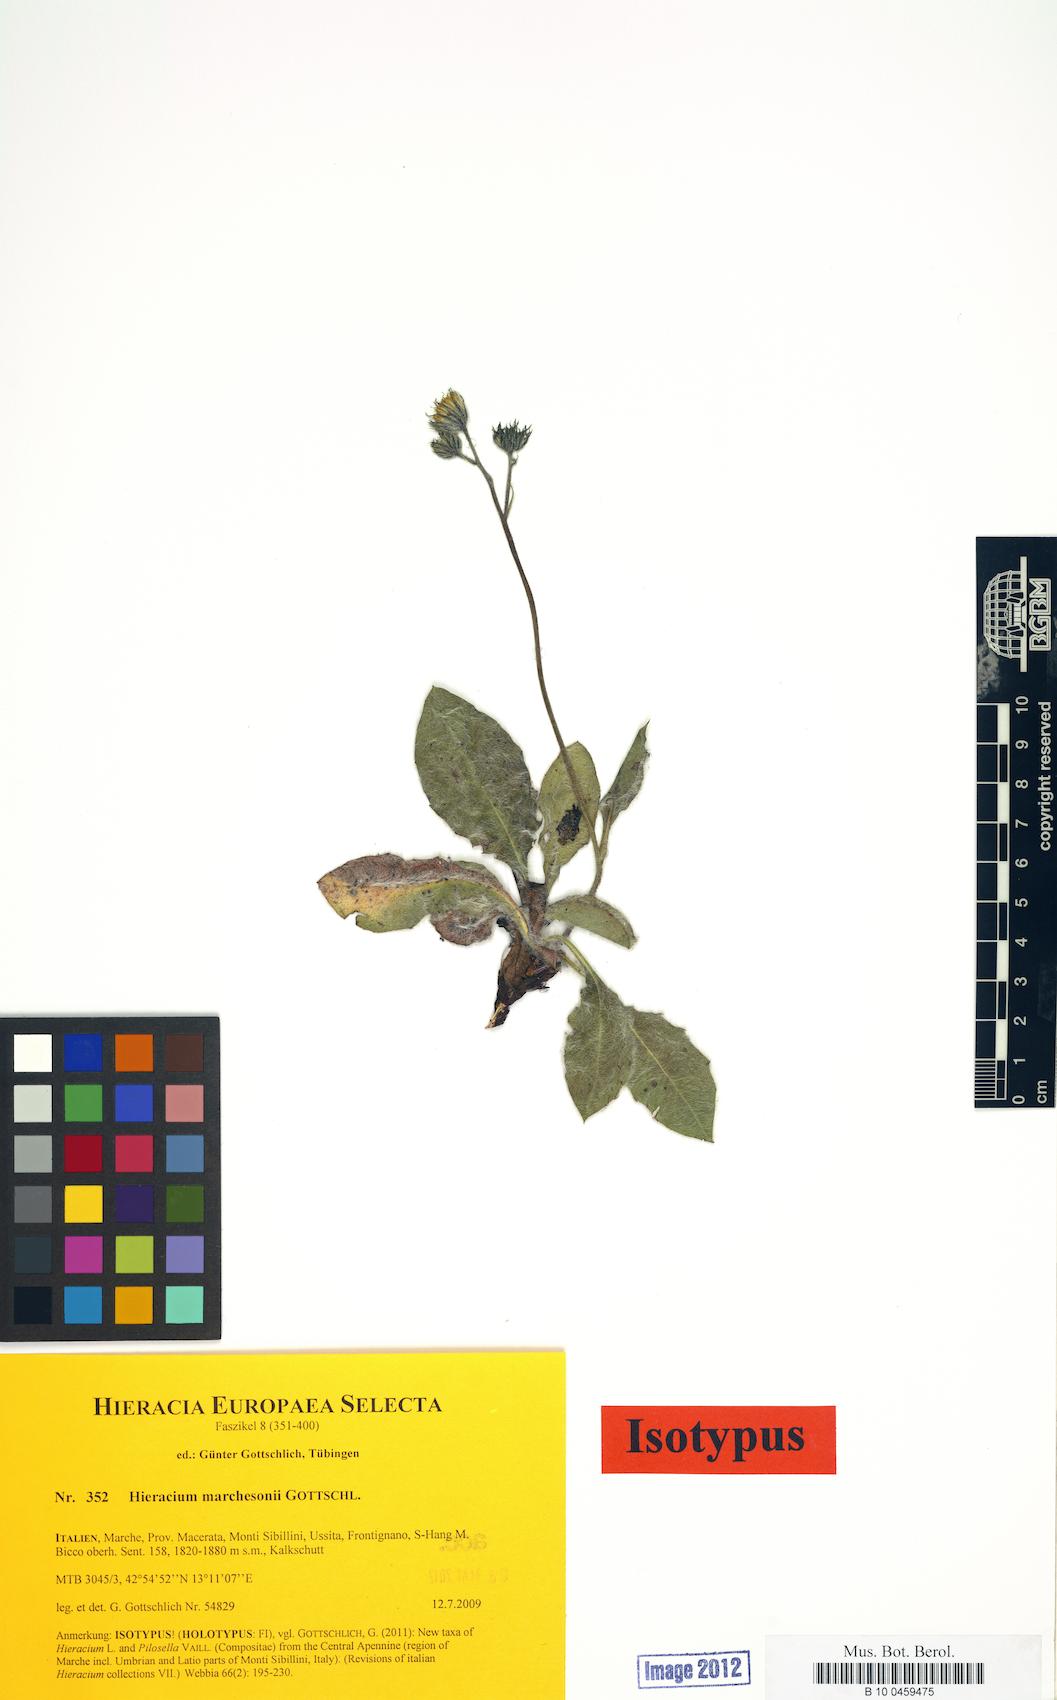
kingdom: Plantae
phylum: Tracheophyta
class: Magnoliopsida
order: Asterales
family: Asteraceae
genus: Hieracium
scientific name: Hieracium marchesonii
